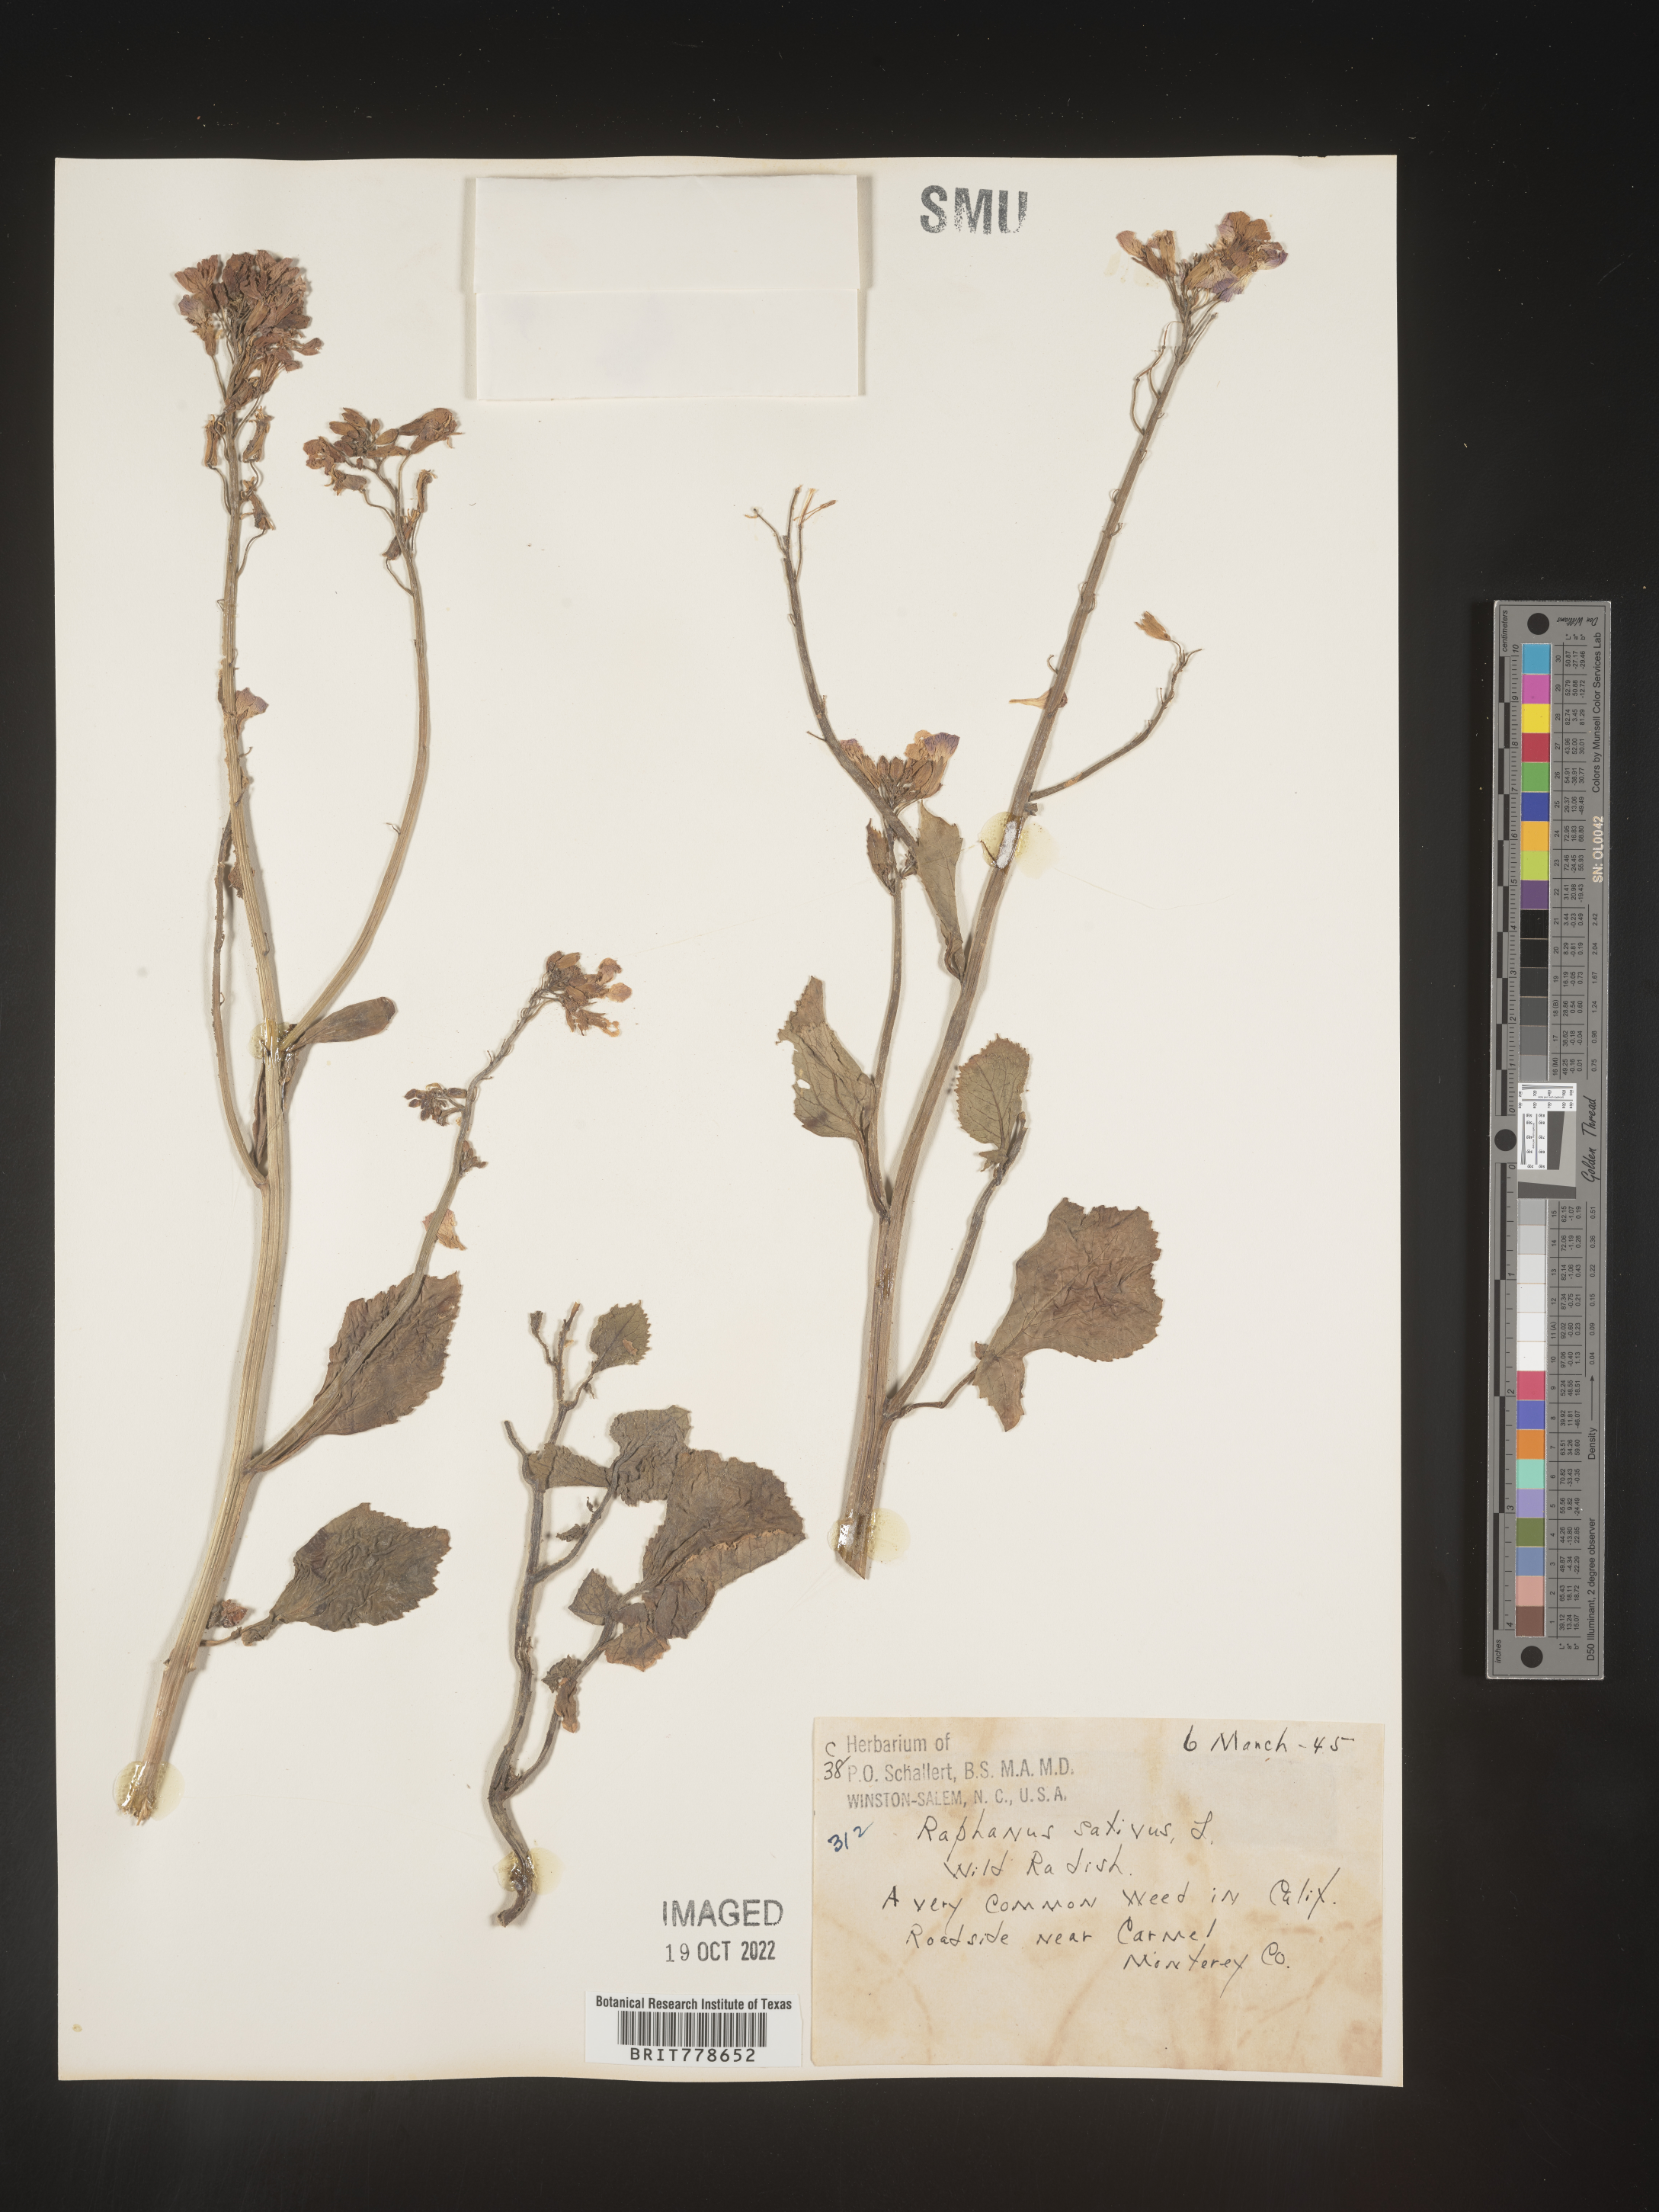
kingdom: Plantae
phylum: Tracheophyta
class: Magnoliopsida
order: Brassicales
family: Brassicaceae
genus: Raphanus
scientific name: Raphanus sativus
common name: Cultivated radish
